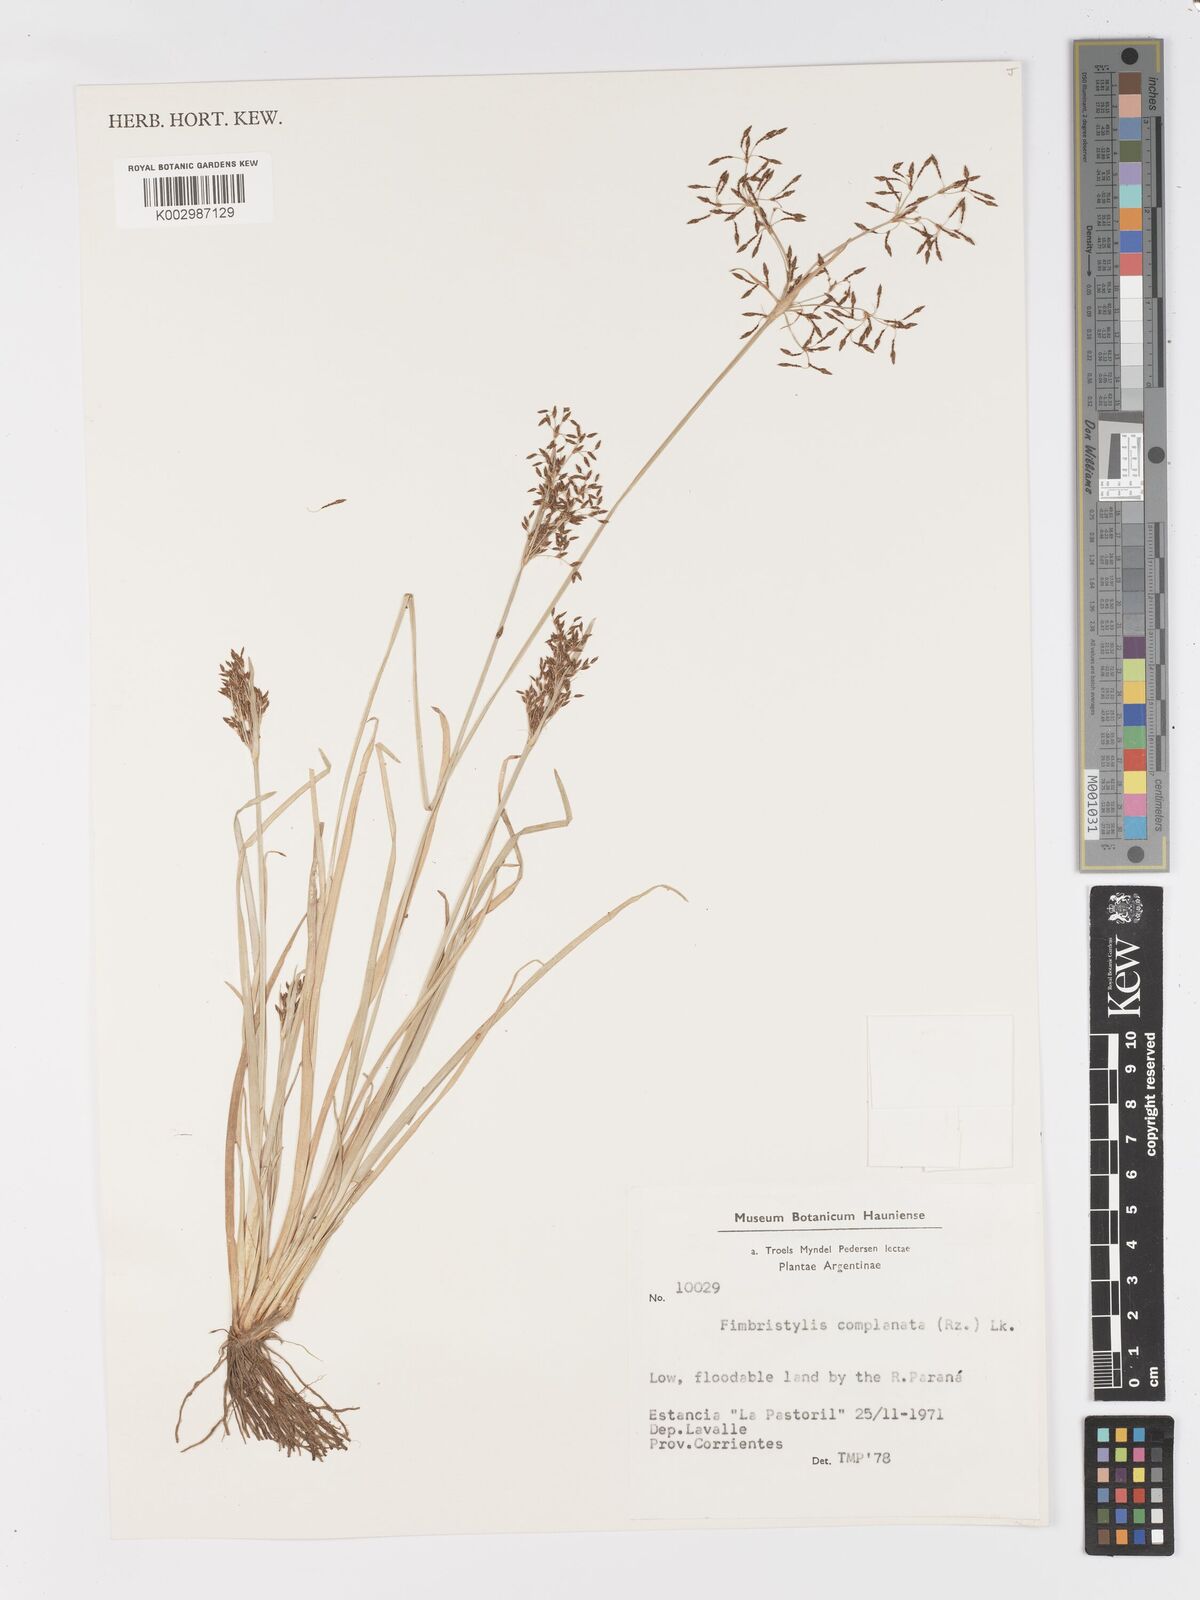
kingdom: Plantae
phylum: Tracheophyta
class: Liliopsida
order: Poales
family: Cyperaceae
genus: Fimbristylis
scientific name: Fimbristylis complanata
